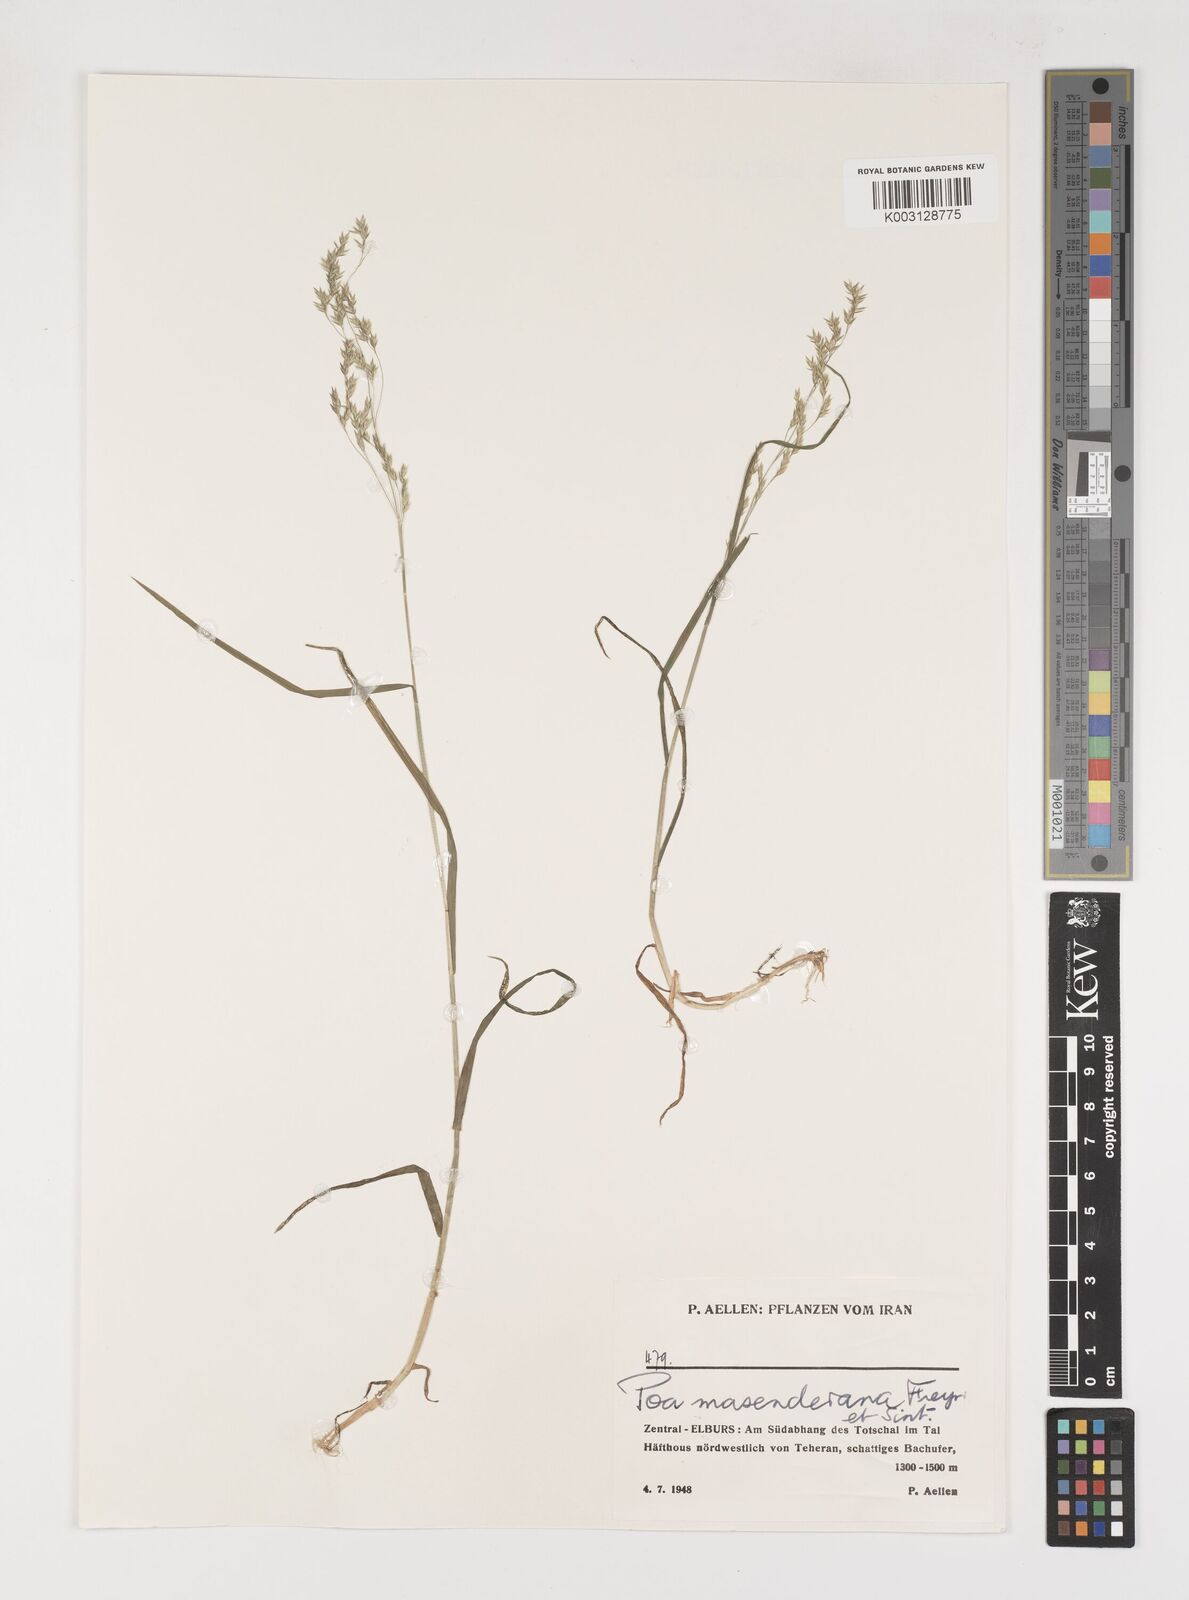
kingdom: Plantae
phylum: Tracheophyta
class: Liliopsida
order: Poales
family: Poaceae
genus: Poa
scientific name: Poa masenderana
